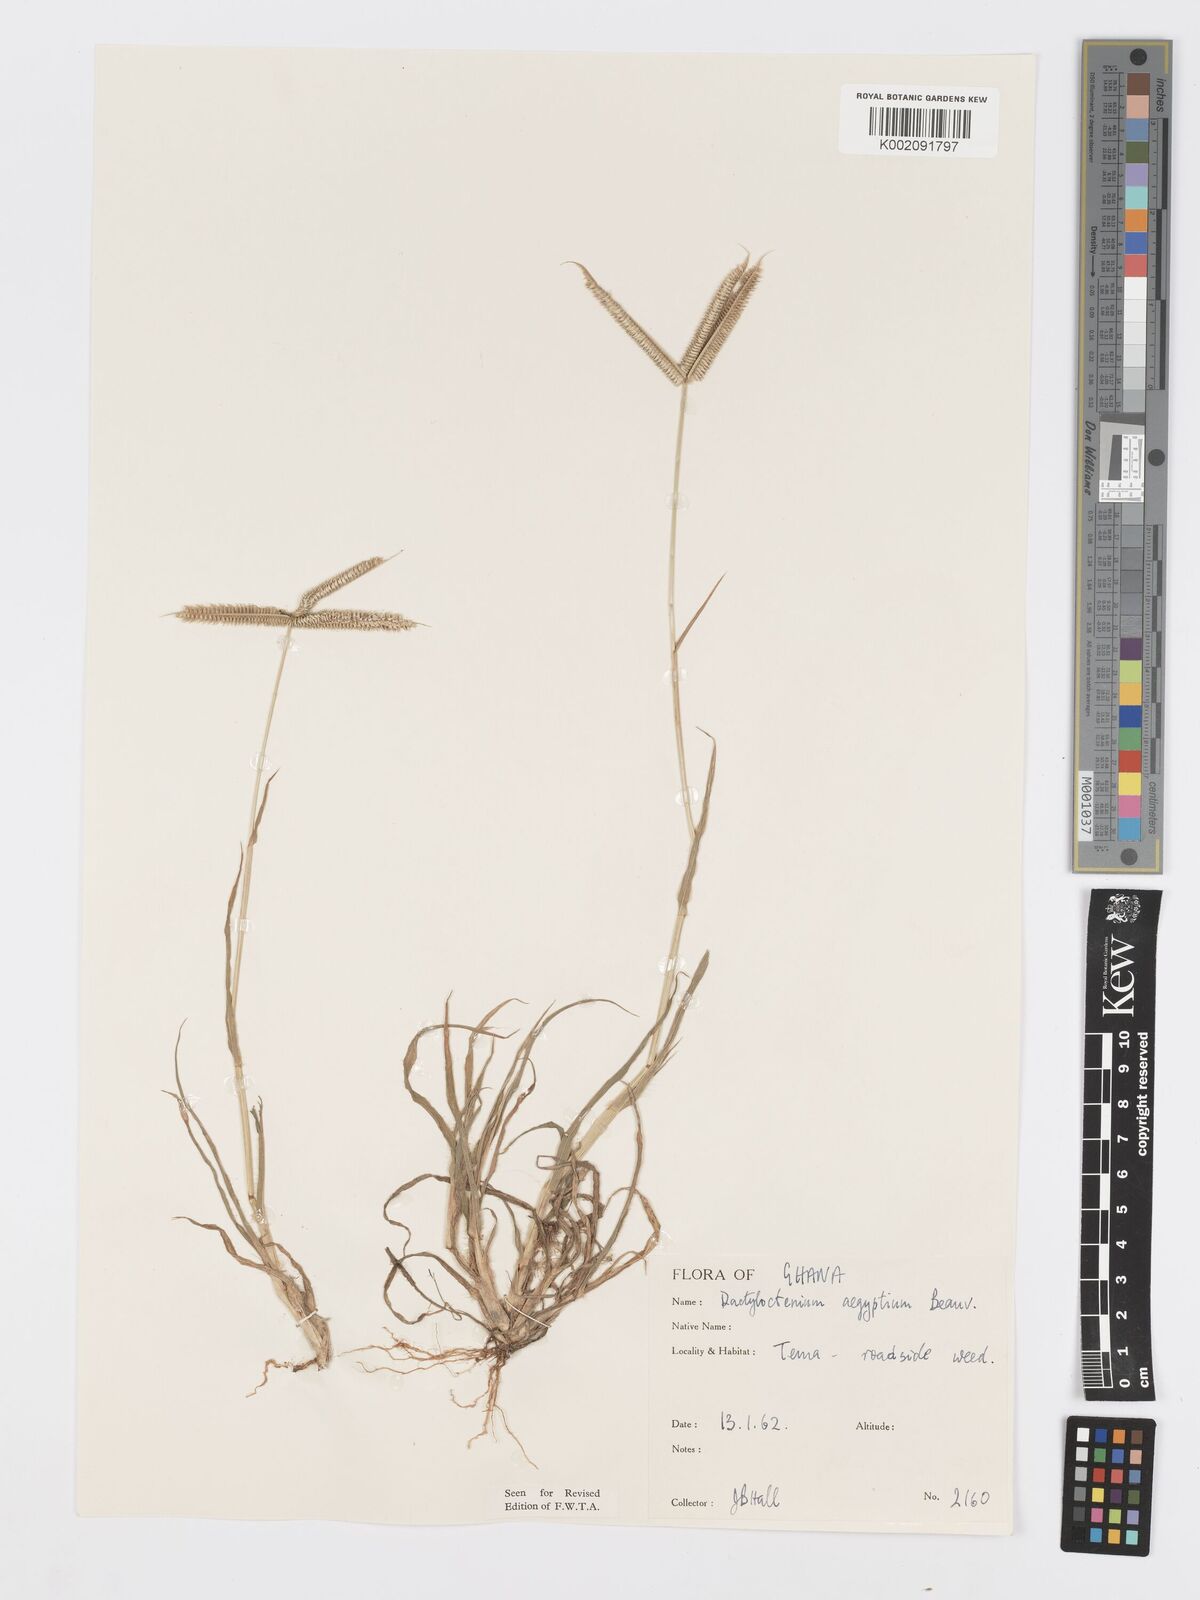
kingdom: Plantae
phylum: Tracheophyta
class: Liliopsida
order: Poales
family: Poaceae
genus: Dactyloctenium
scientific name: Dactyloctenium aegyptium
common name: Egyptian grass
